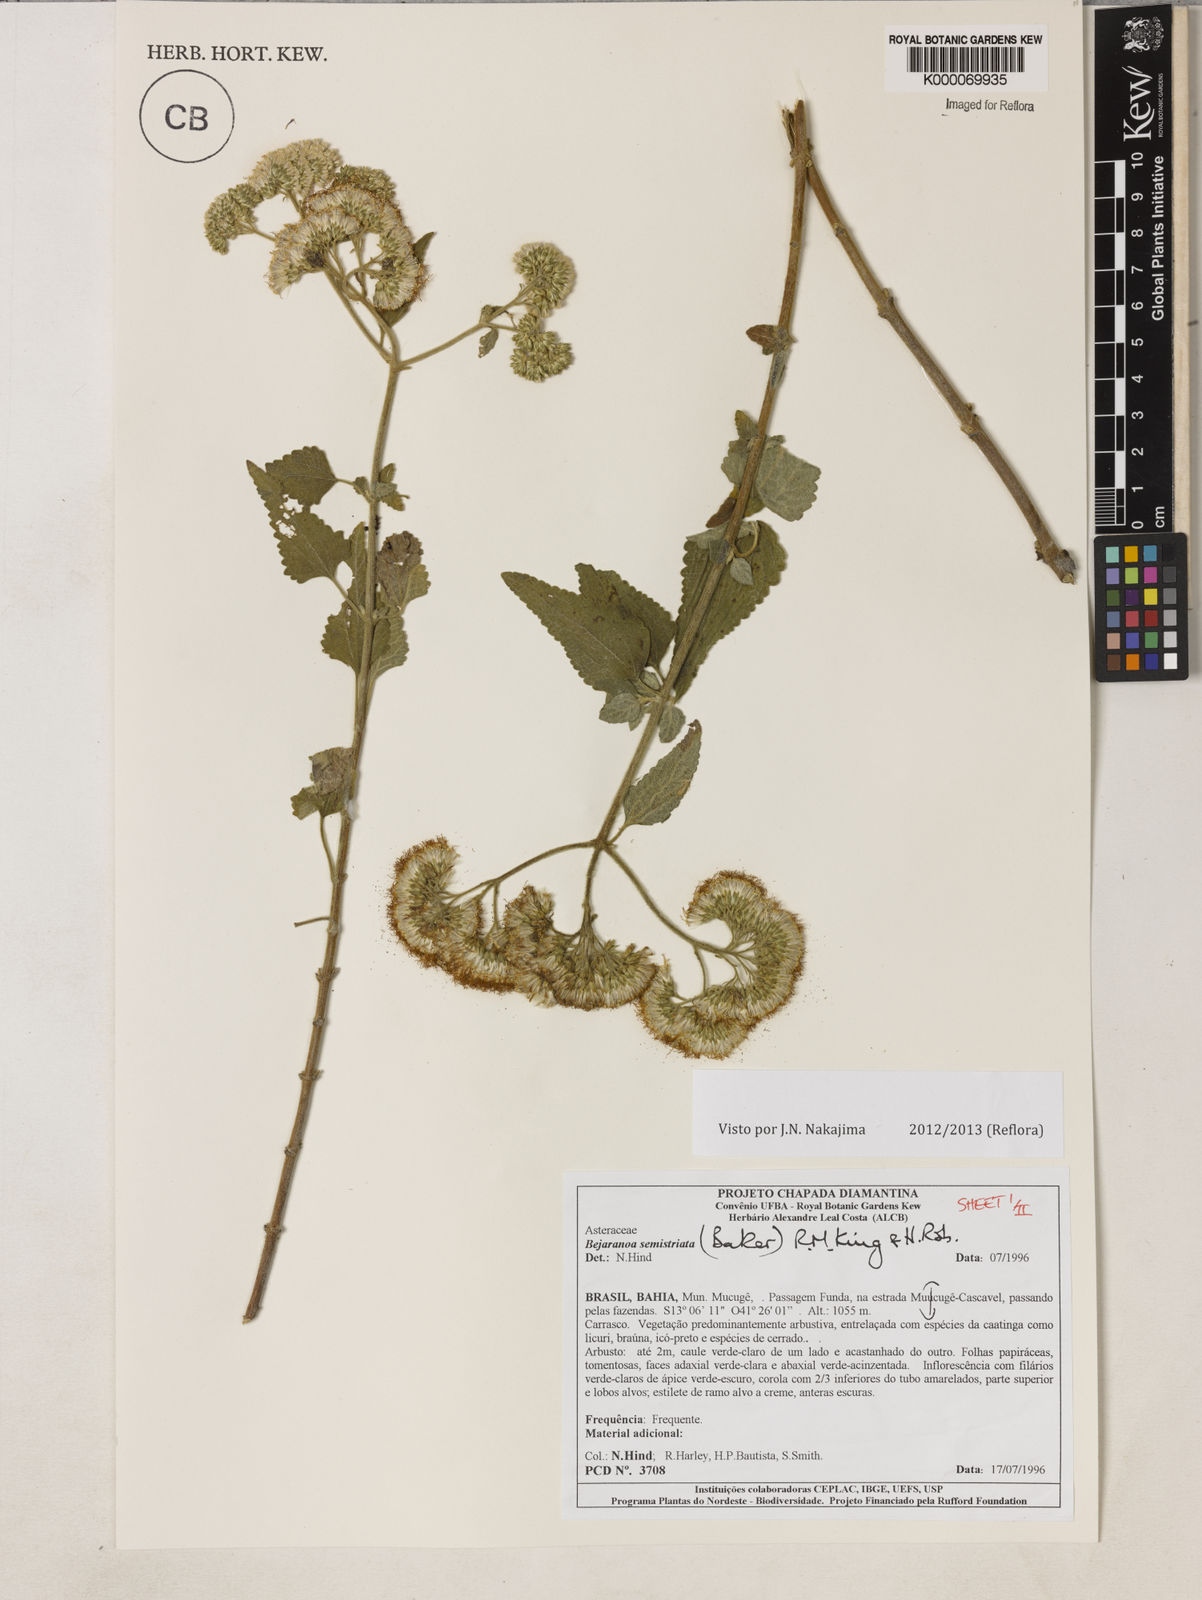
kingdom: Plantae
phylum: Tracheophyta
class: Magnoliopsida
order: Asterales
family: Asteraceae
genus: Bejaranoa
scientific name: Bejaranoa semistriata
